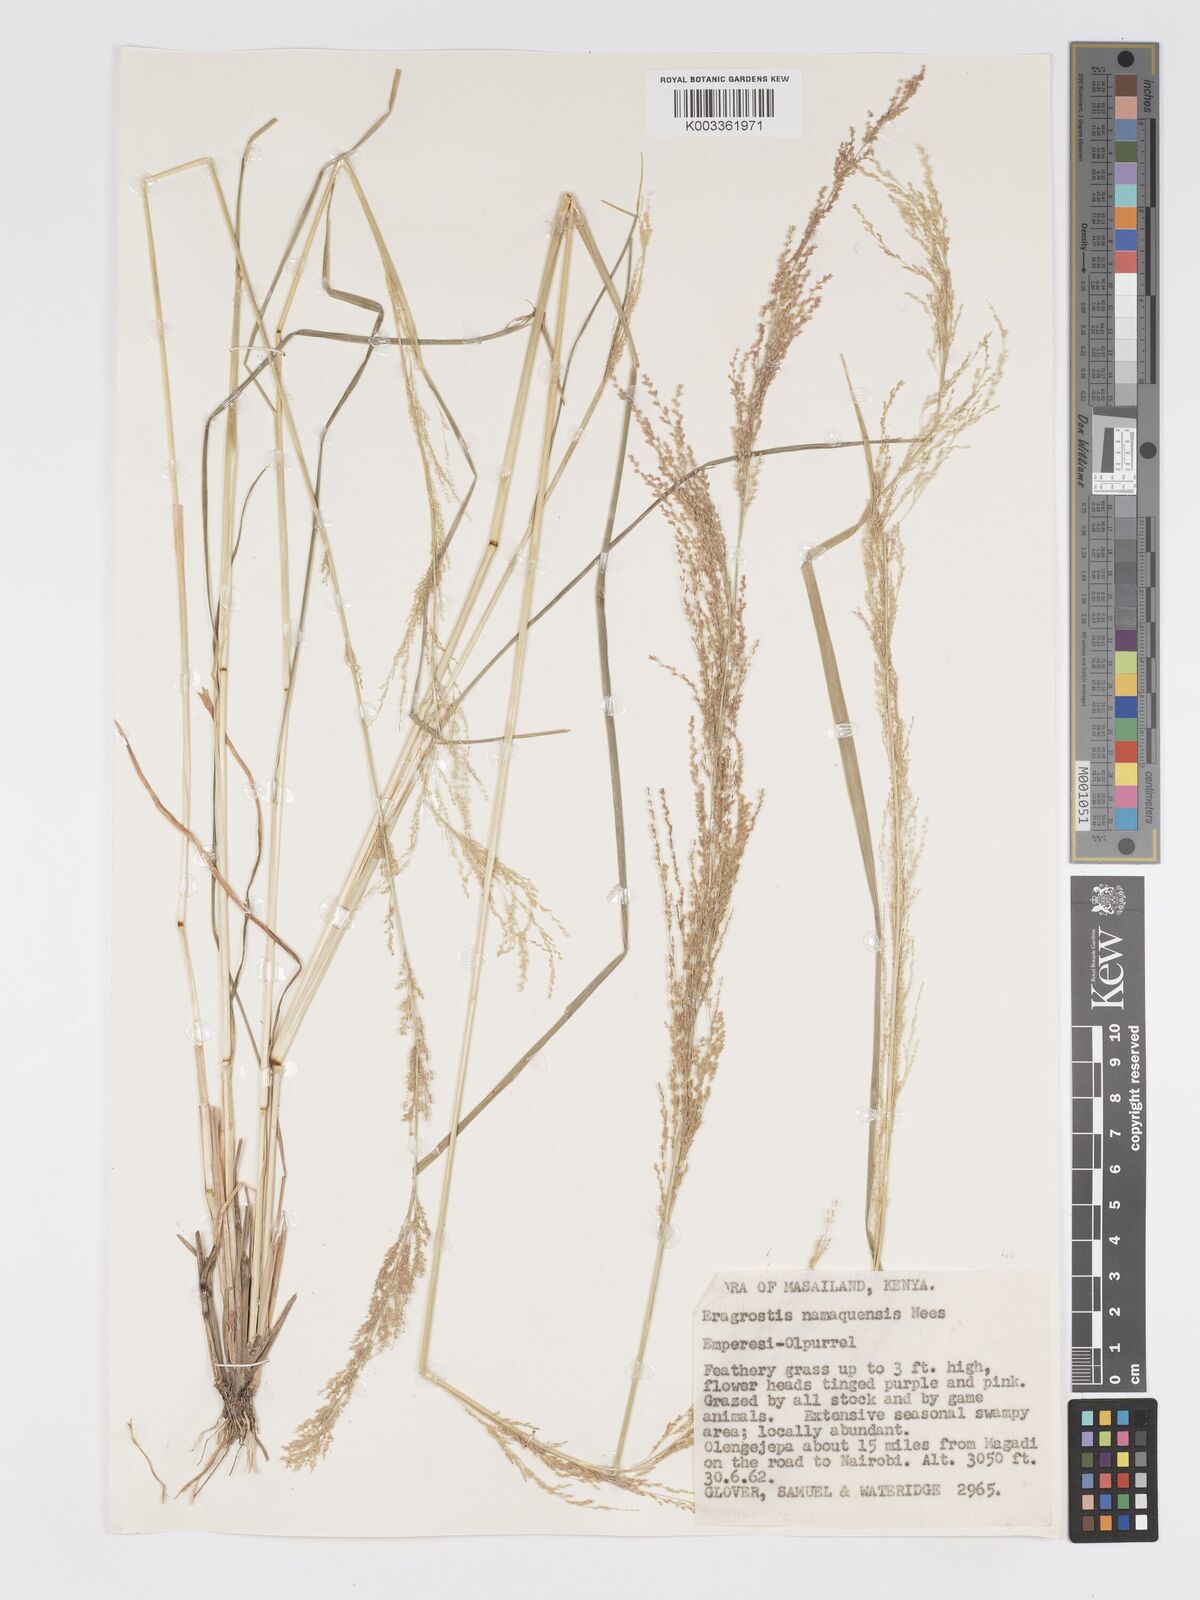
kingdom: Plantae
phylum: Tracheophyta
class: Liliopsida
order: Poales
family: Poaceae
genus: Eragrostis
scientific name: Eragrostis japonica
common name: Pond lovegrass
